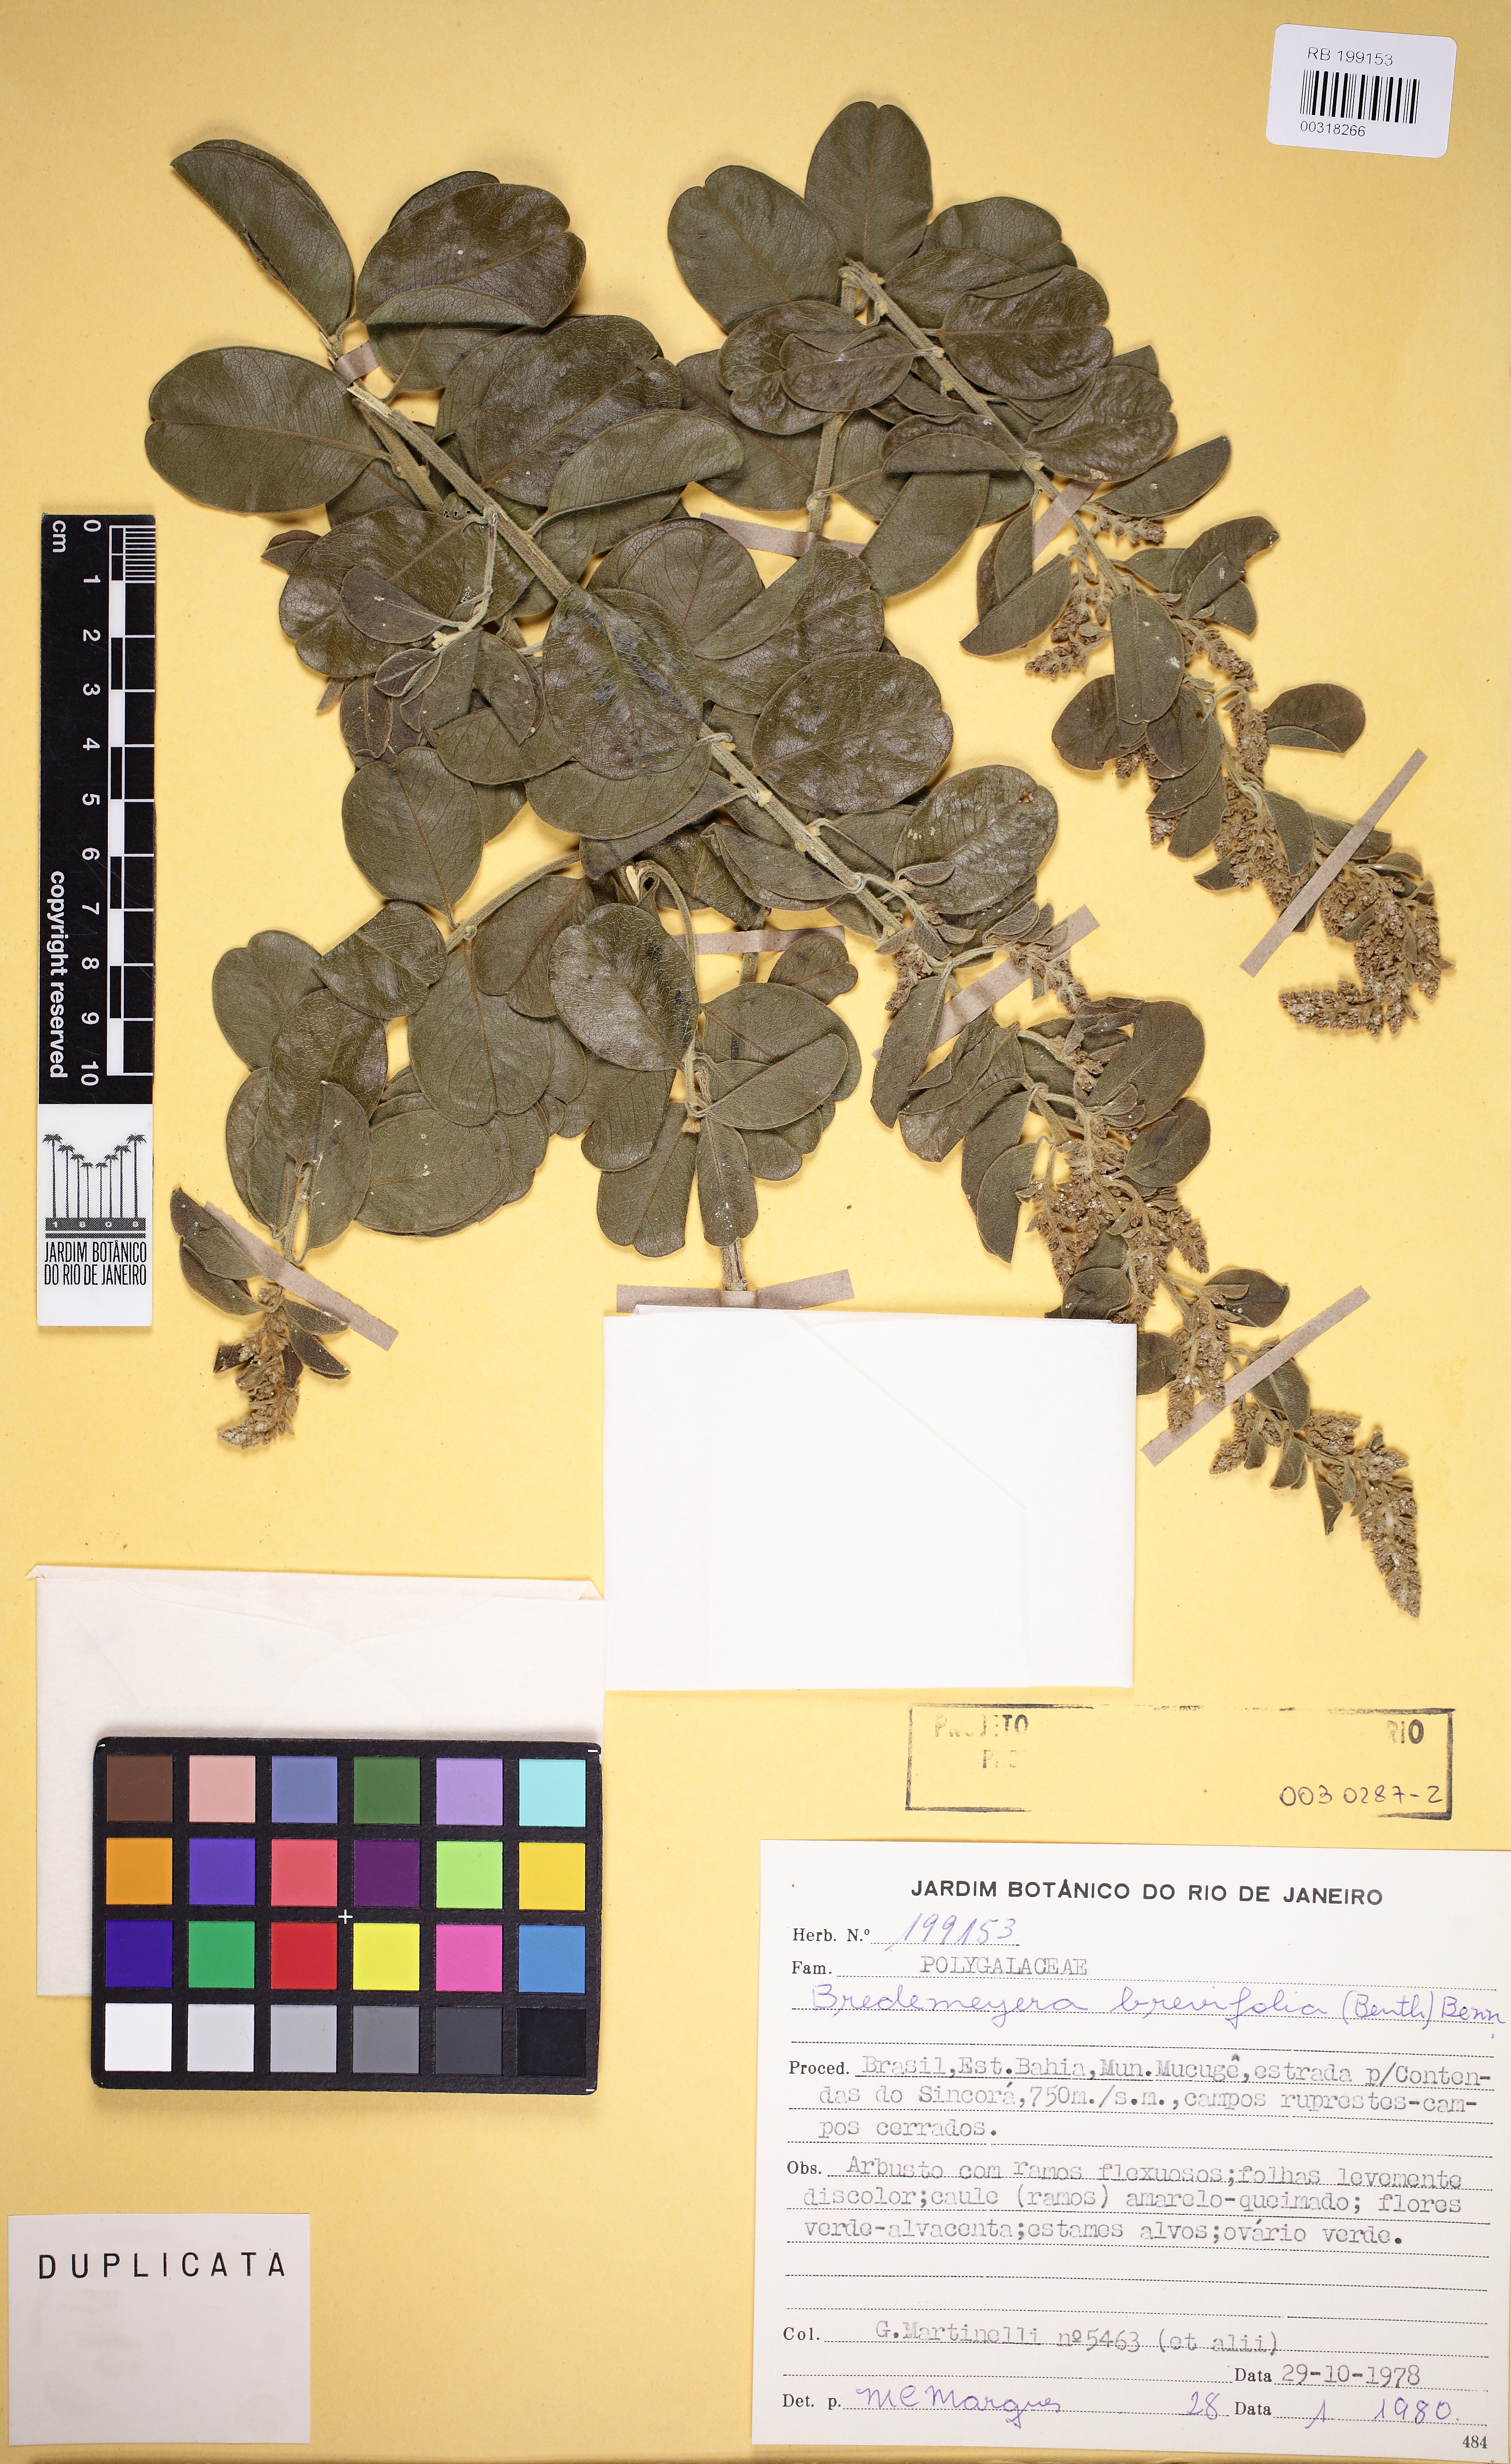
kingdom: Plantae
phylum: Tracheophyta
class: Magnoliopsida
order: Fabales
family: Polygalaceae
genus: Bredemeyera
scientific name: Bredemeyera brevifolia
